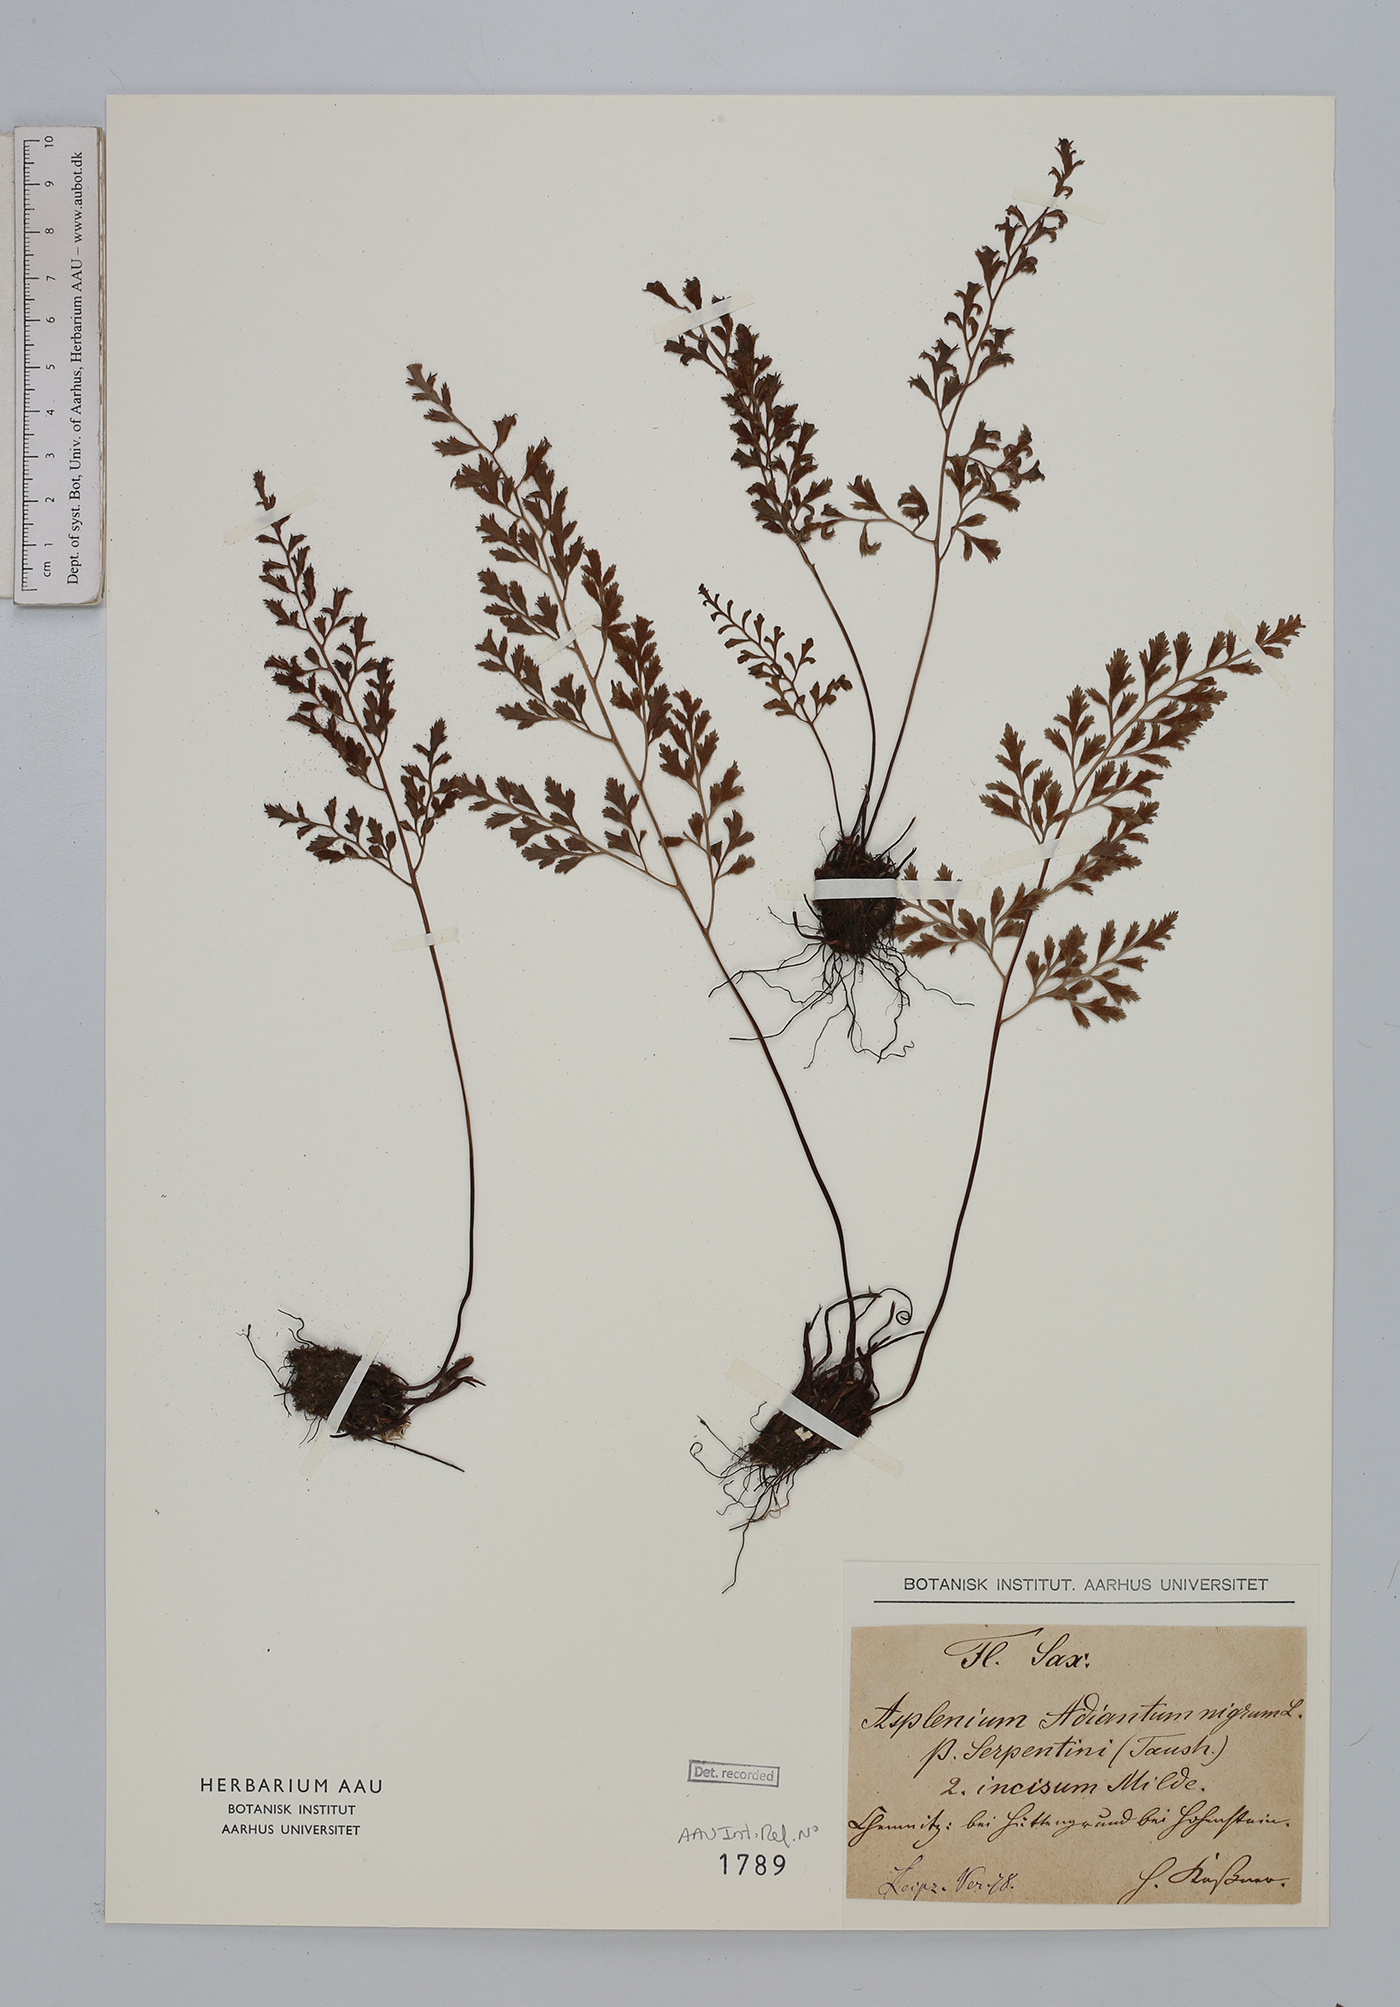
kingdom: Plantae
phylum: Tracheophyta
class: Polypodiopsida
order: Polypodiales
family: Aspleniaceae
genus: Asplenium
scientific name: Asplenium cuneifolium
